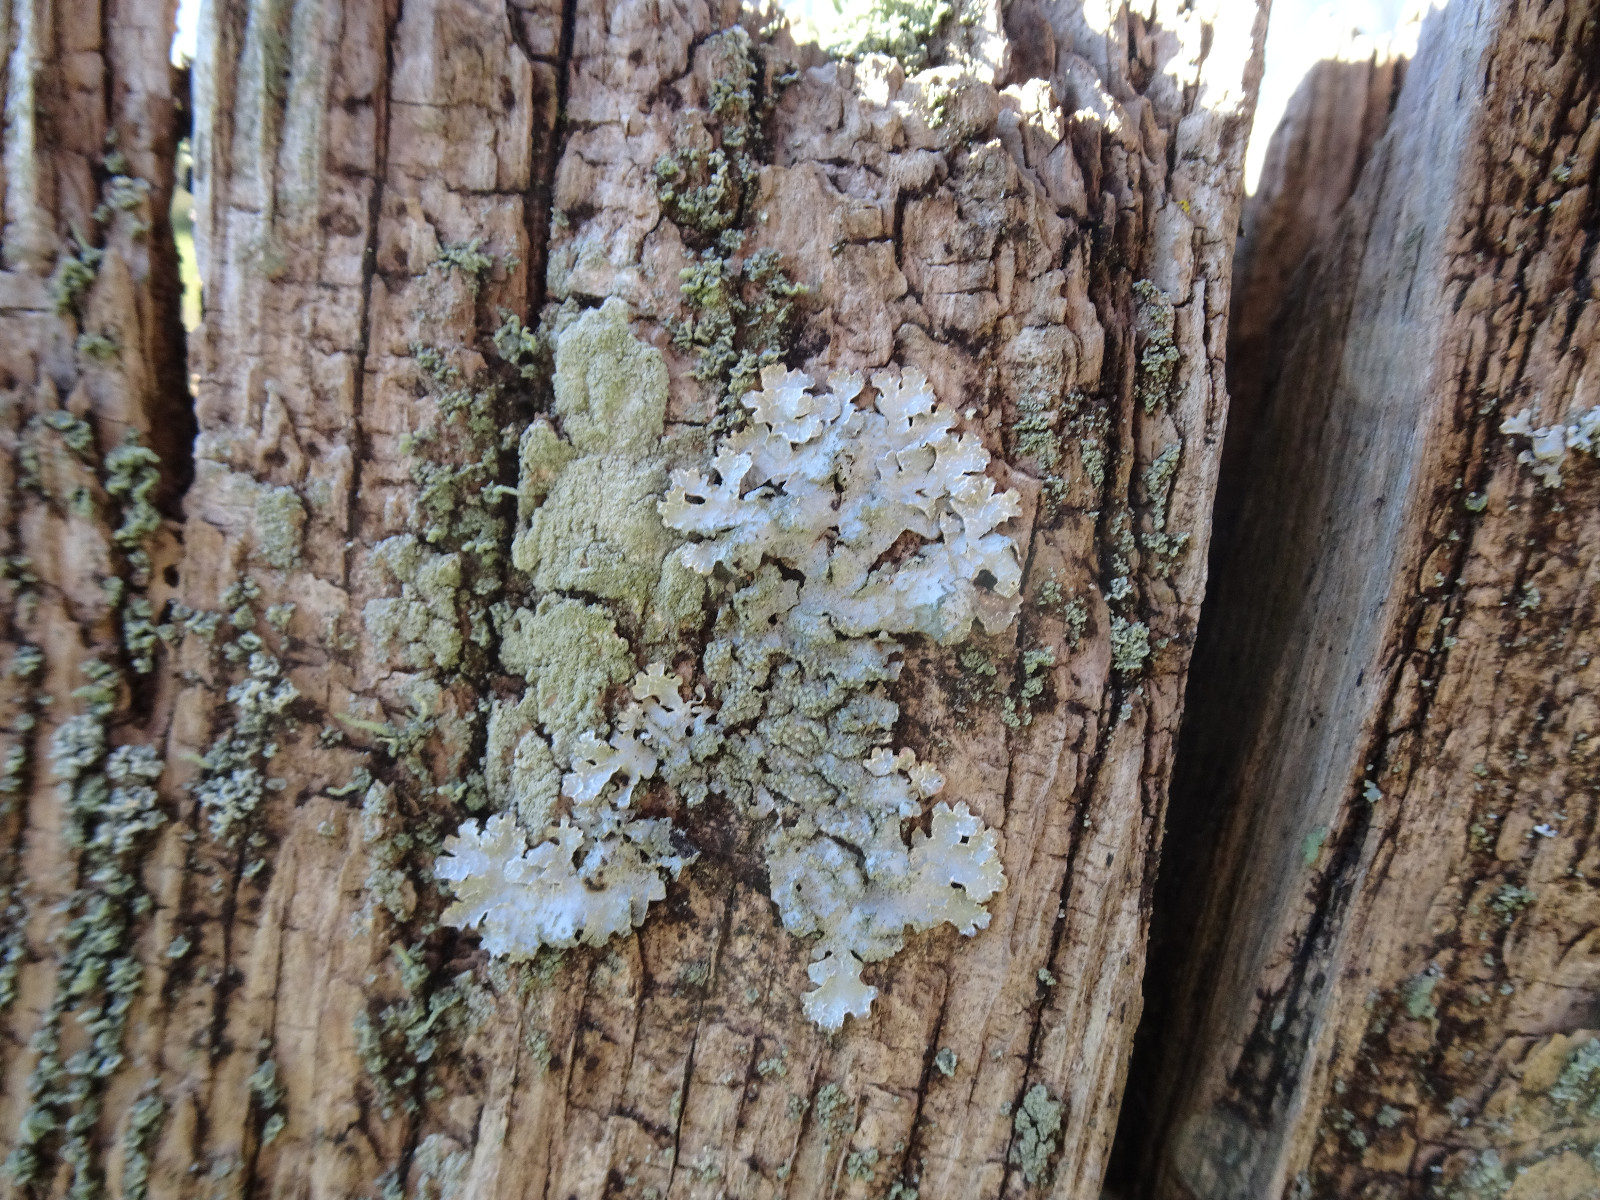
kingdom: Fungi
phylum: Ascomycota
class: Lecanoromycetes
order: Lecanorales
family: Parmeliaceae
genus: Parmelia
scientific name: Parmelia sulcata
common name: rynket skållav
